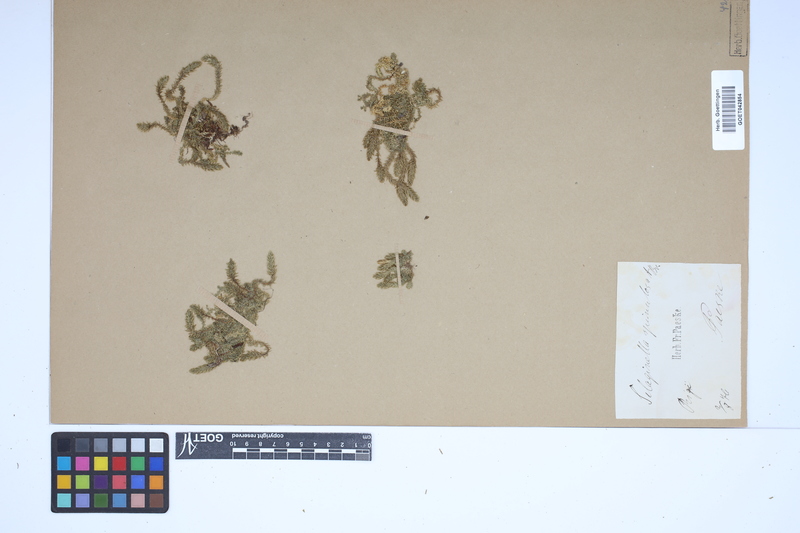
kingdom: Plantae
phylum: Tracheophyta
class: Lycopodiopsida
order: Selaginellales
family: Selaginellaceae
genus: Selaginella
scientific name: Selaginella selaginoides
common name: Prickly mountain-moss
